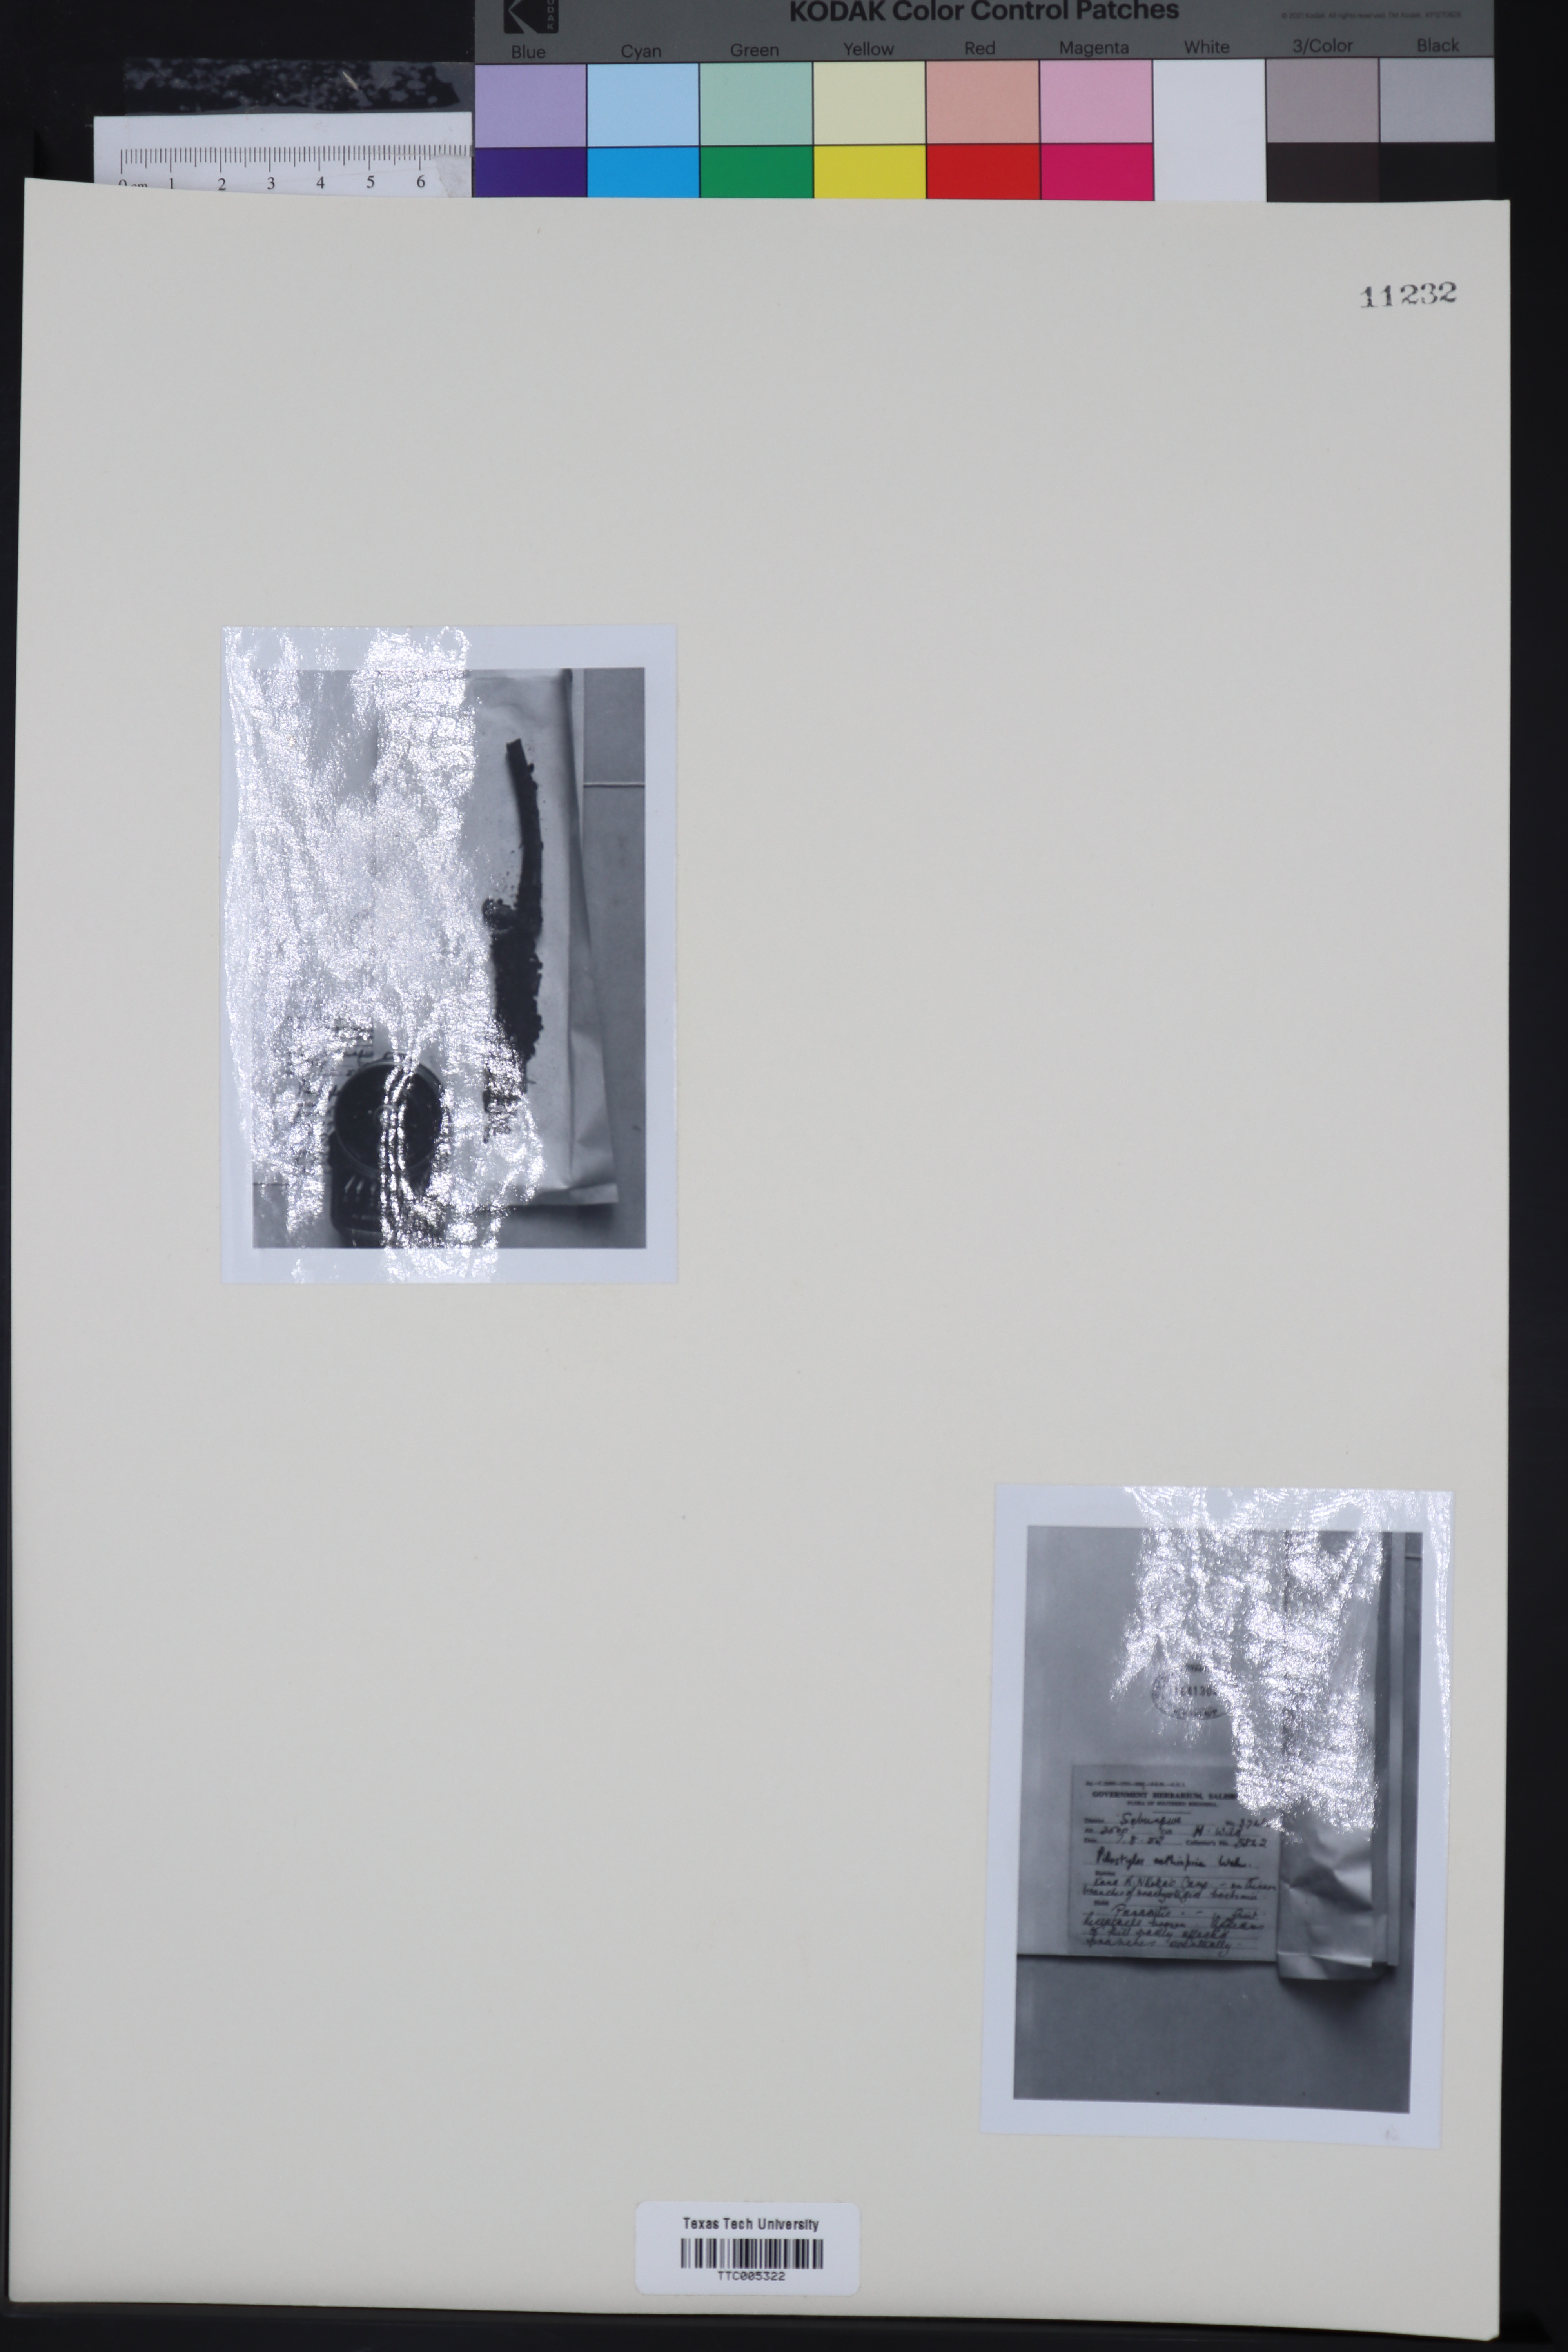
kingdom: Plantae
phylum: Tracheophyta
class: Magnoliopsida
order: Cucurbitales
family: Apodanthaceae
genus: Pilostyles
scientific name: Pilostyles aethiopica
